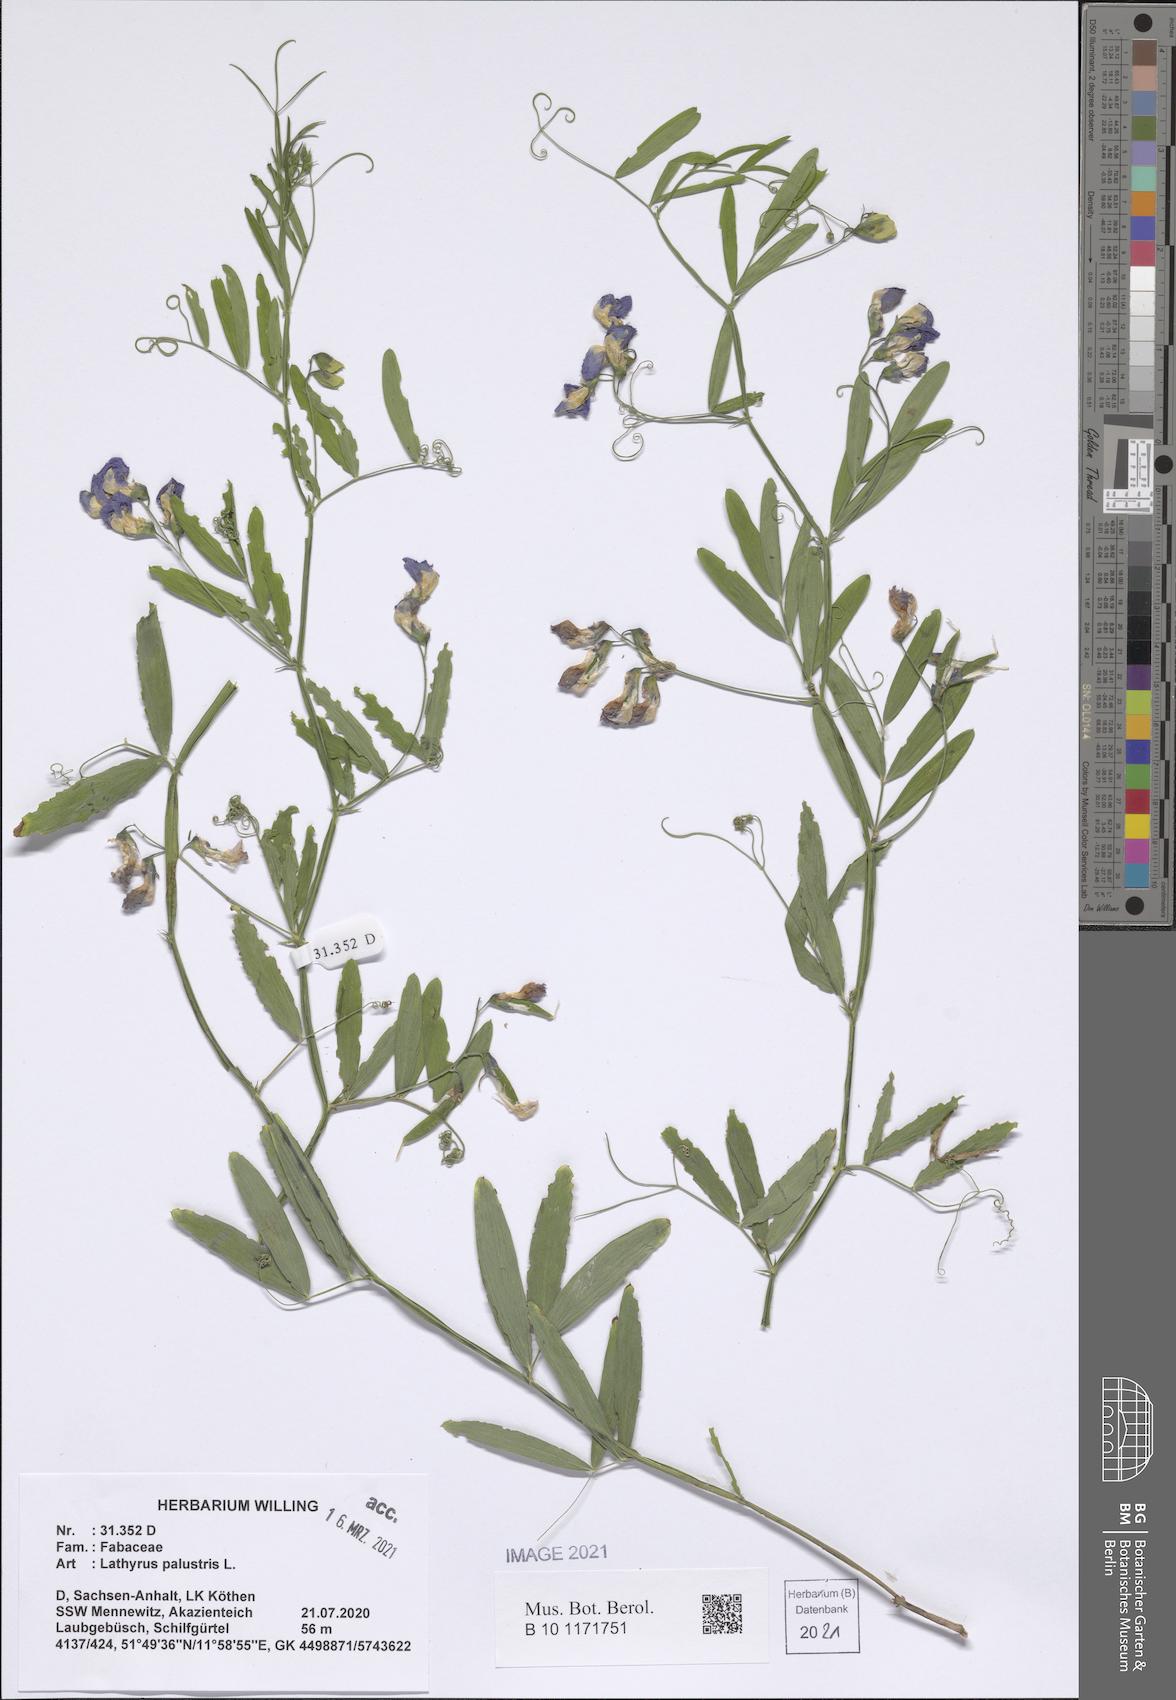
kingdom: Plantae
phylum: Tracheophyta
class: Magnoliopsida
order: Fabales
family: Fabaceae
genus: Lathyrus
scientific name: Lathyrus palustris
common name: Marsh pea
